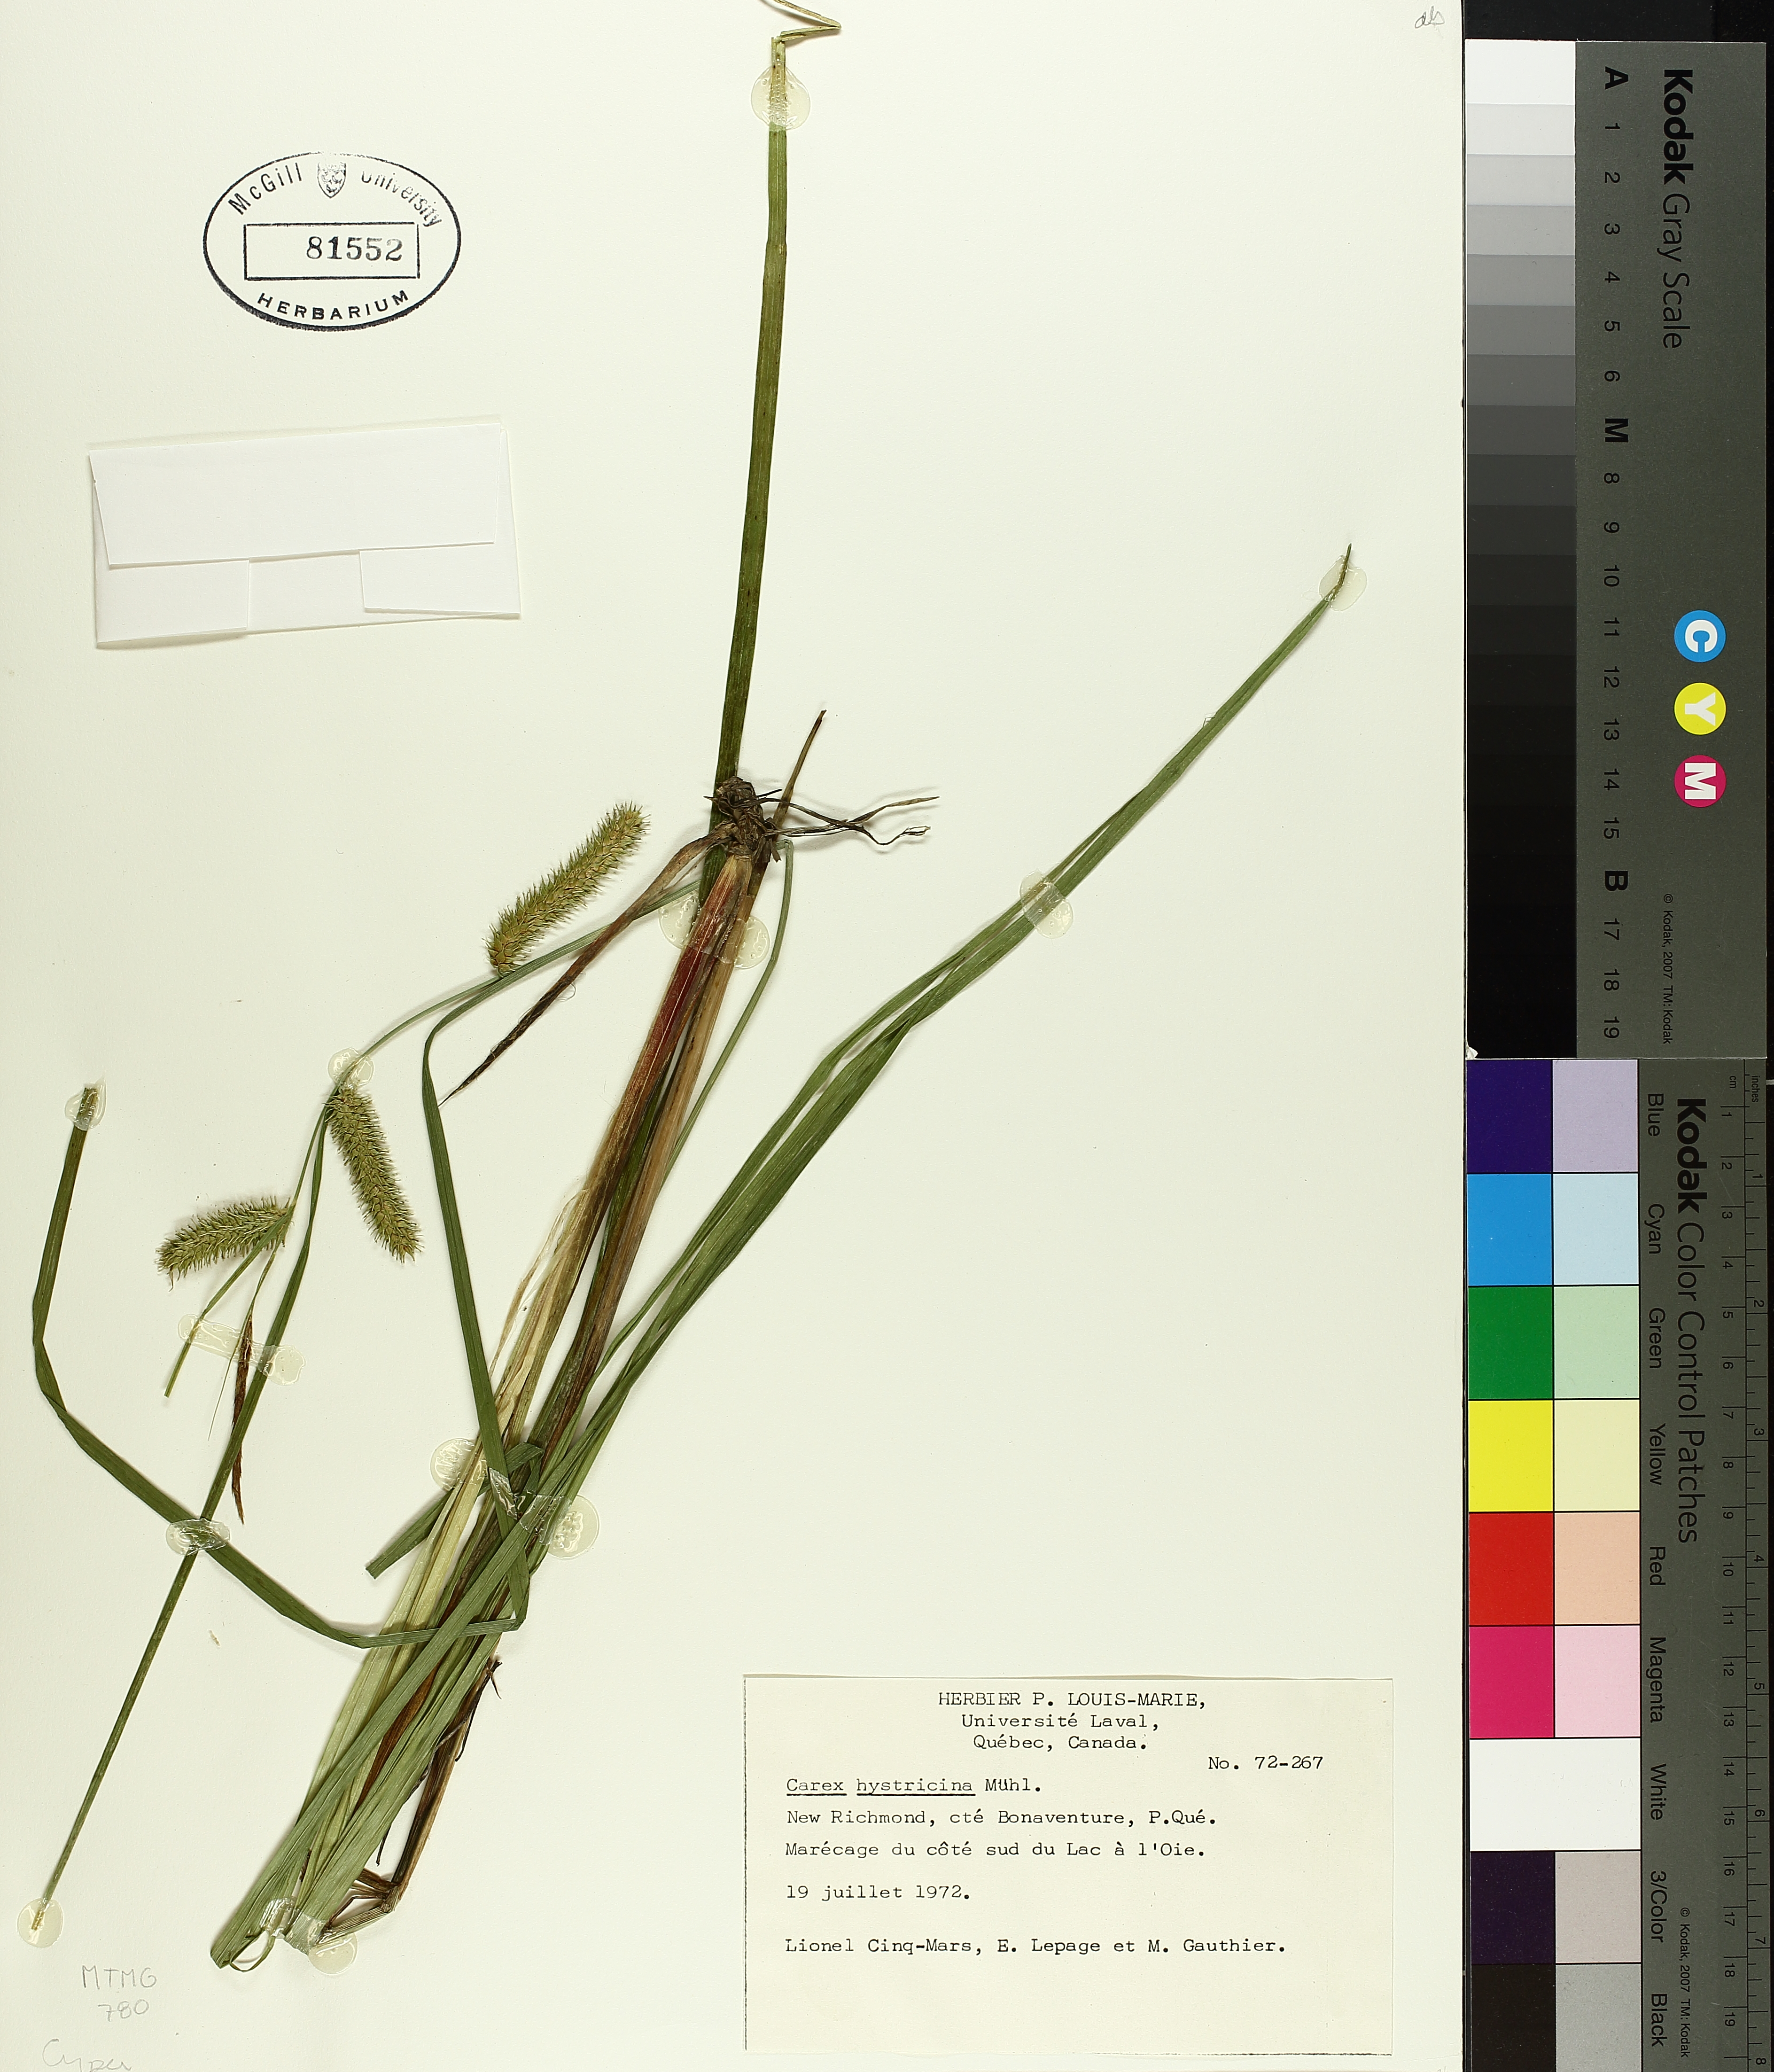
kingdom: Plantae
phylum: Tracheophyta
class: Liliopsida
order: Poales
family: Cyperaceae
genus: Carex
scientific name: Carex hystericina
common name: Bottlebrush sedge
